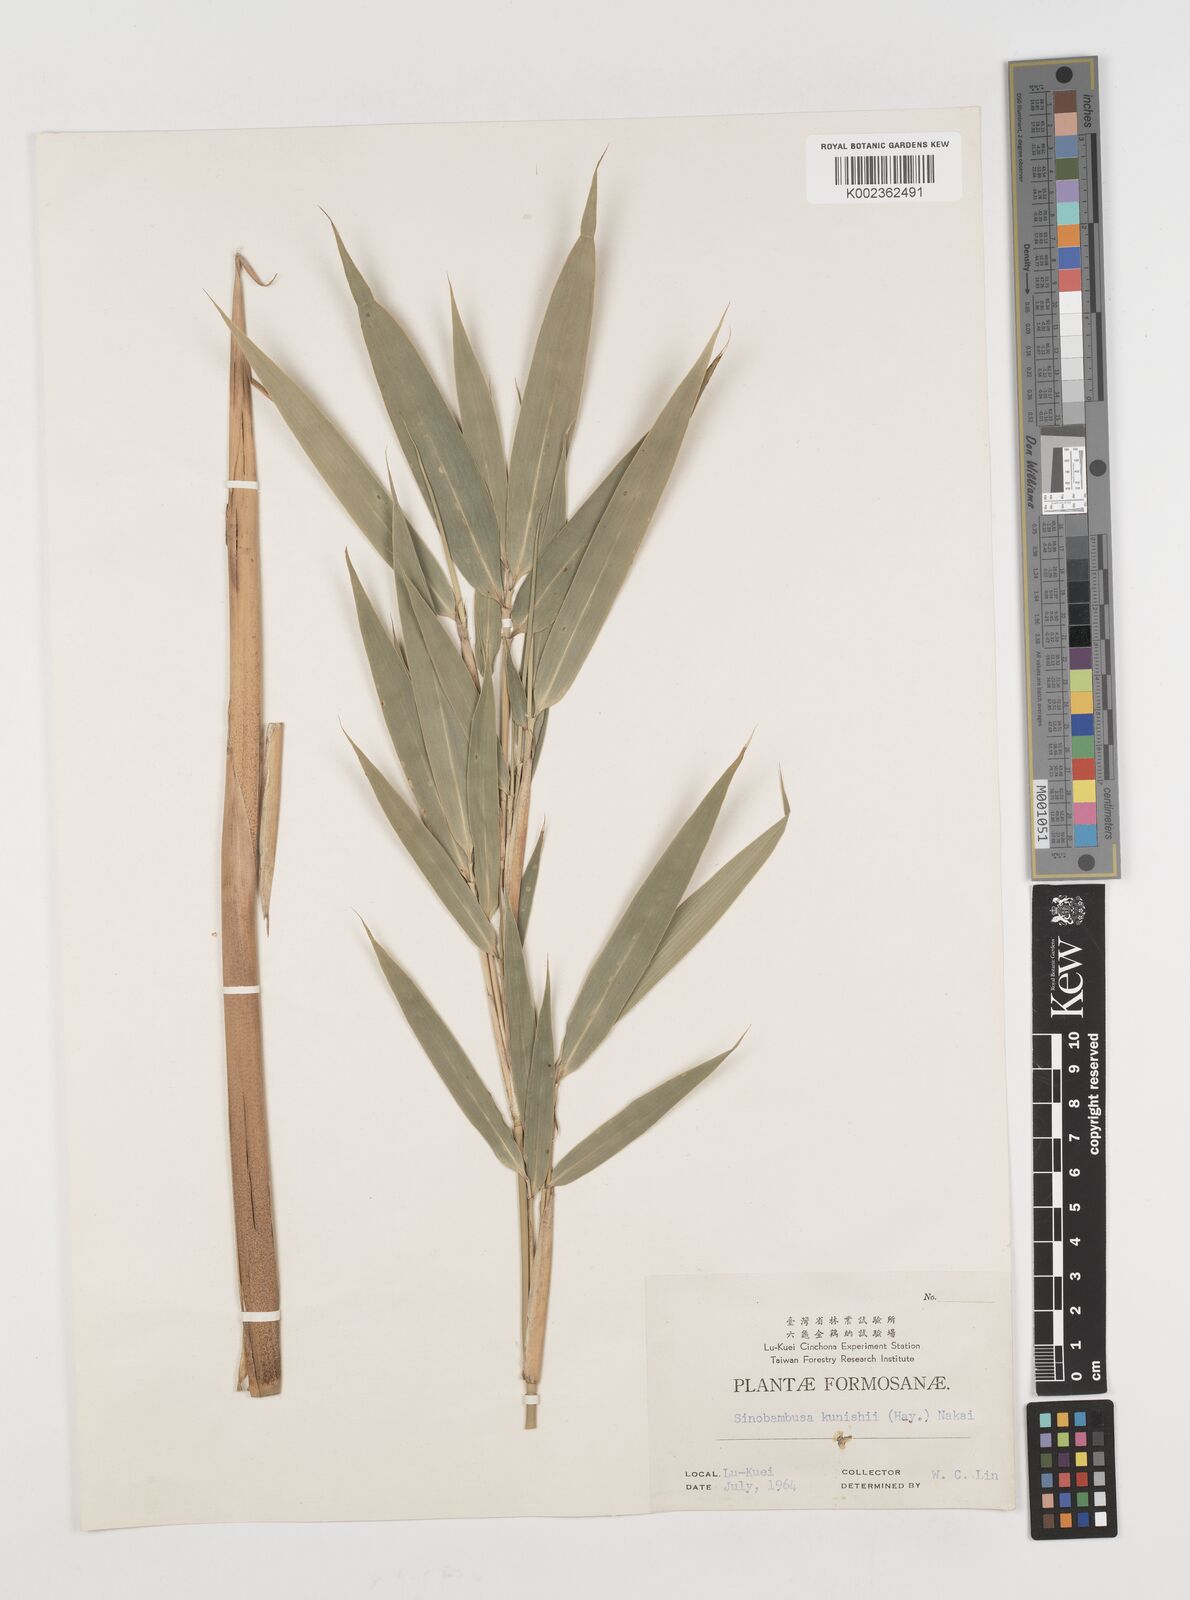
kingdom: Plantae
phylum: Tracheophyta
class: Liliopsida
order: Poales
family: Poaceae
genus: Gelidocalamus
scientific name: Gelidocalamus kunishii
